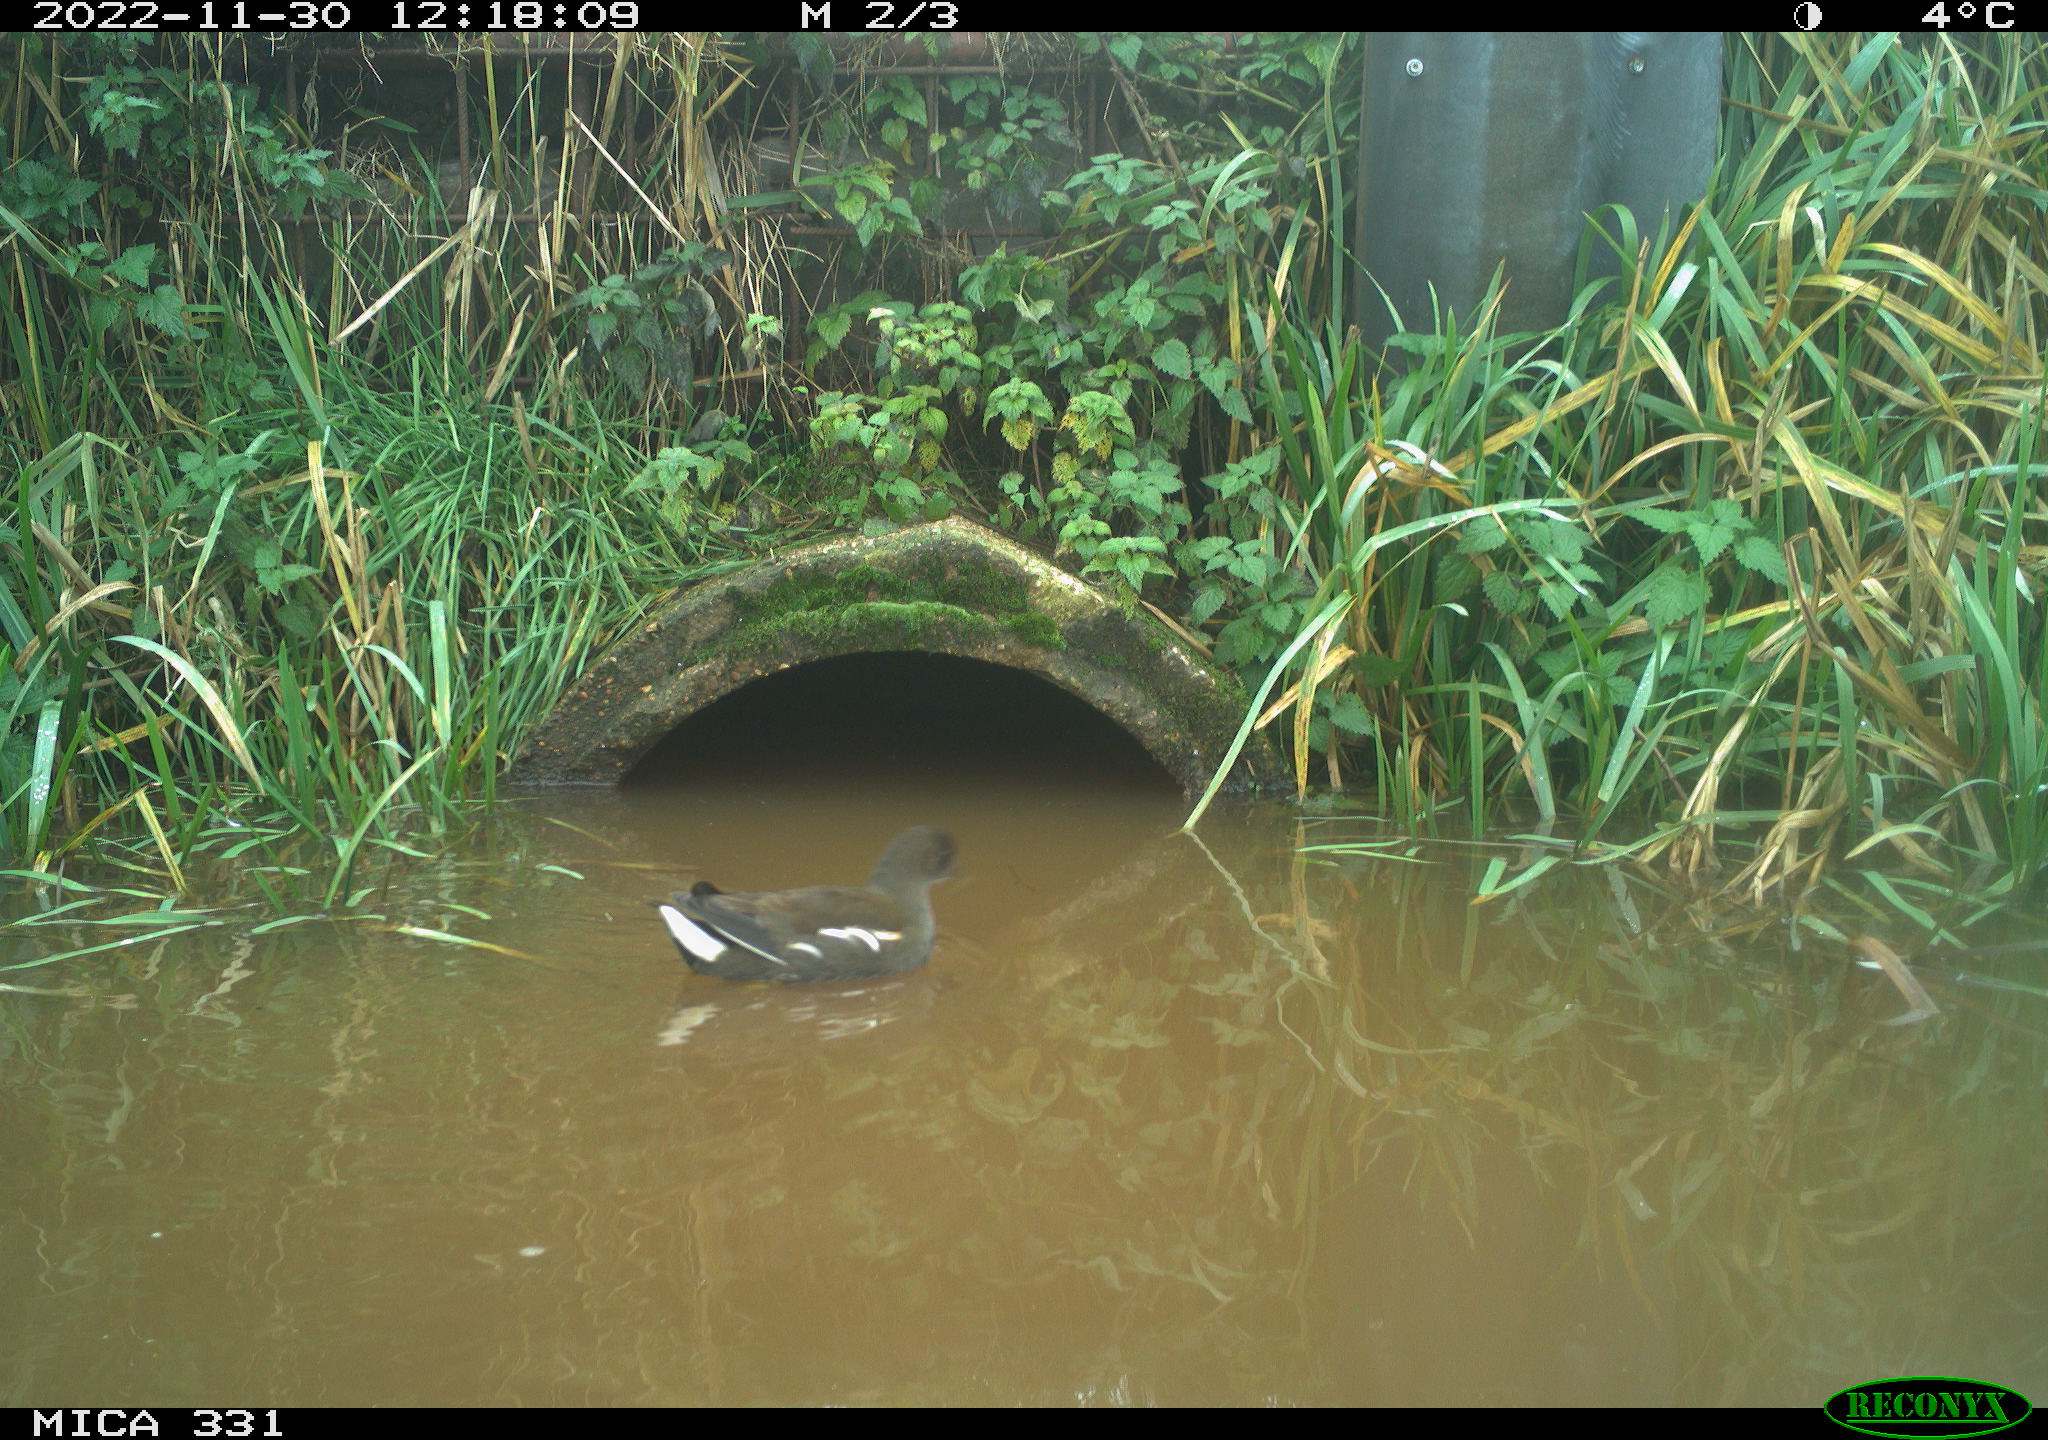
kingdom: Animalia
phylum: Chordata
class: Aves
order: Gruiformes
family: Rallidae
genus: Gallinula
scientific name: Gallinula chloropus
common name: Common moorhen
